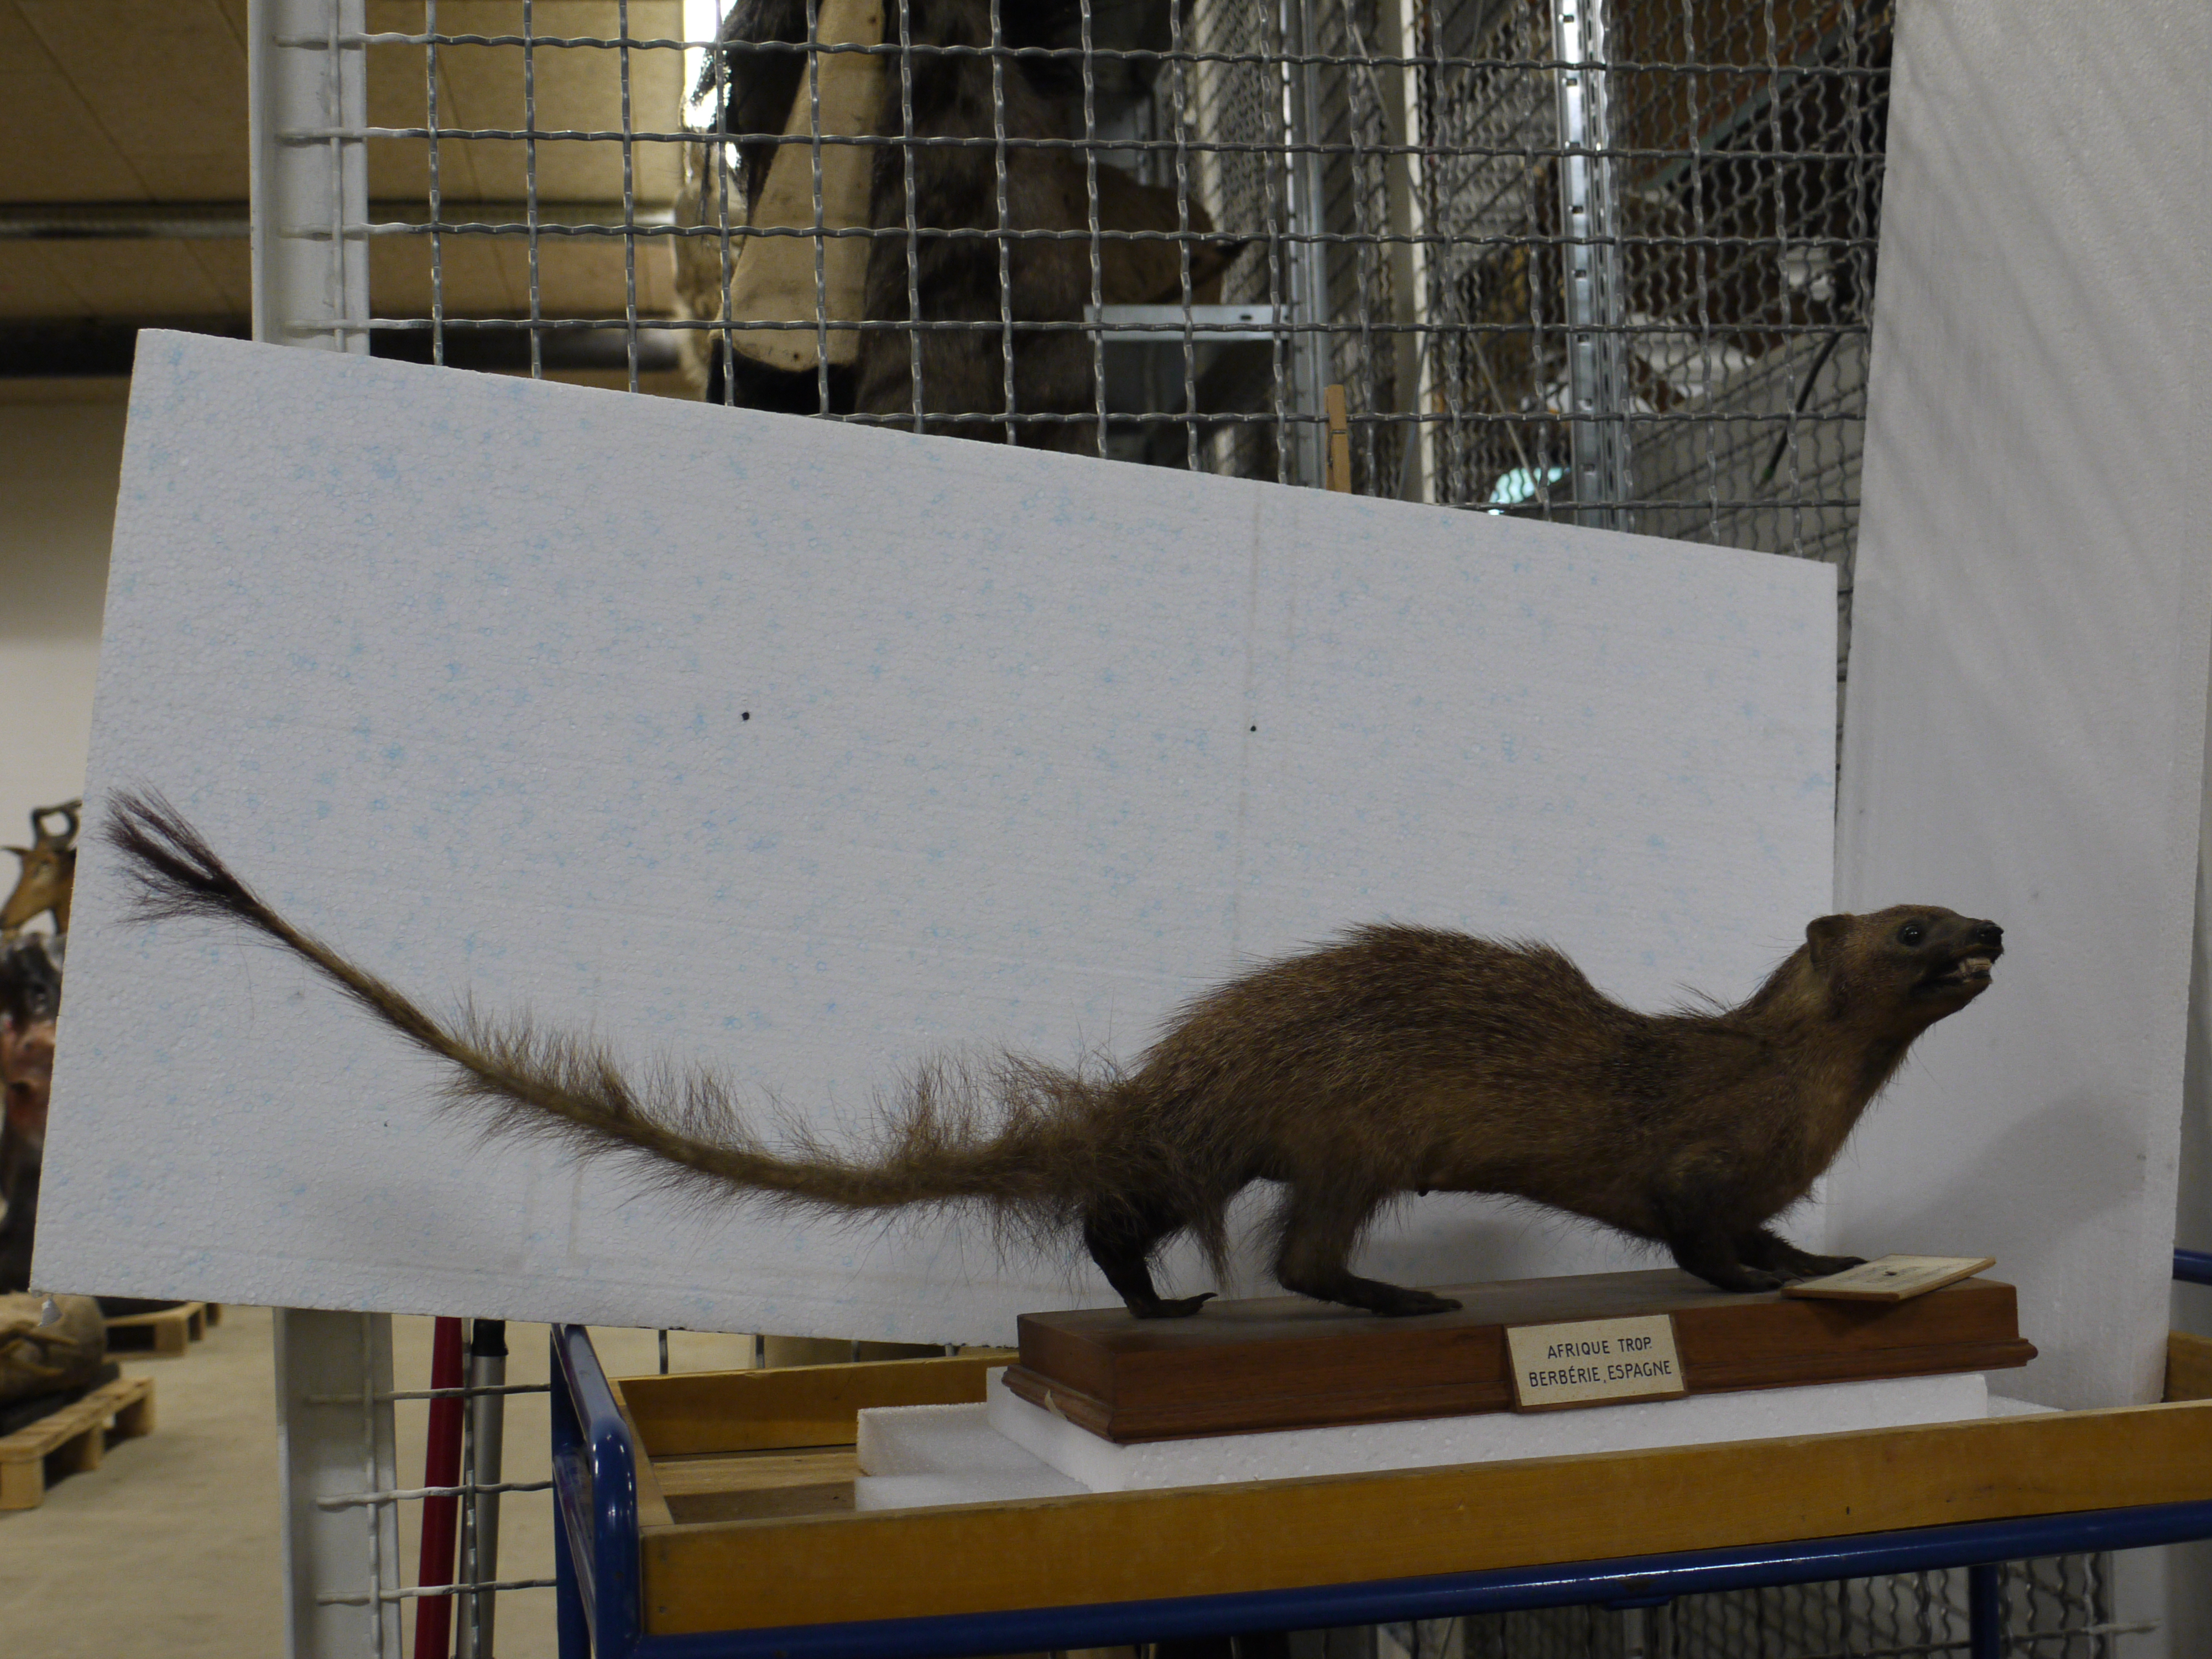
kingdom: Animalia
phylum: Chordata
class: Mammalia
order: Carnivora
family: Herpestidae
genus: Herpestes
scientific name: Herpestes ichneumon
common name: Egyptian mongoose
